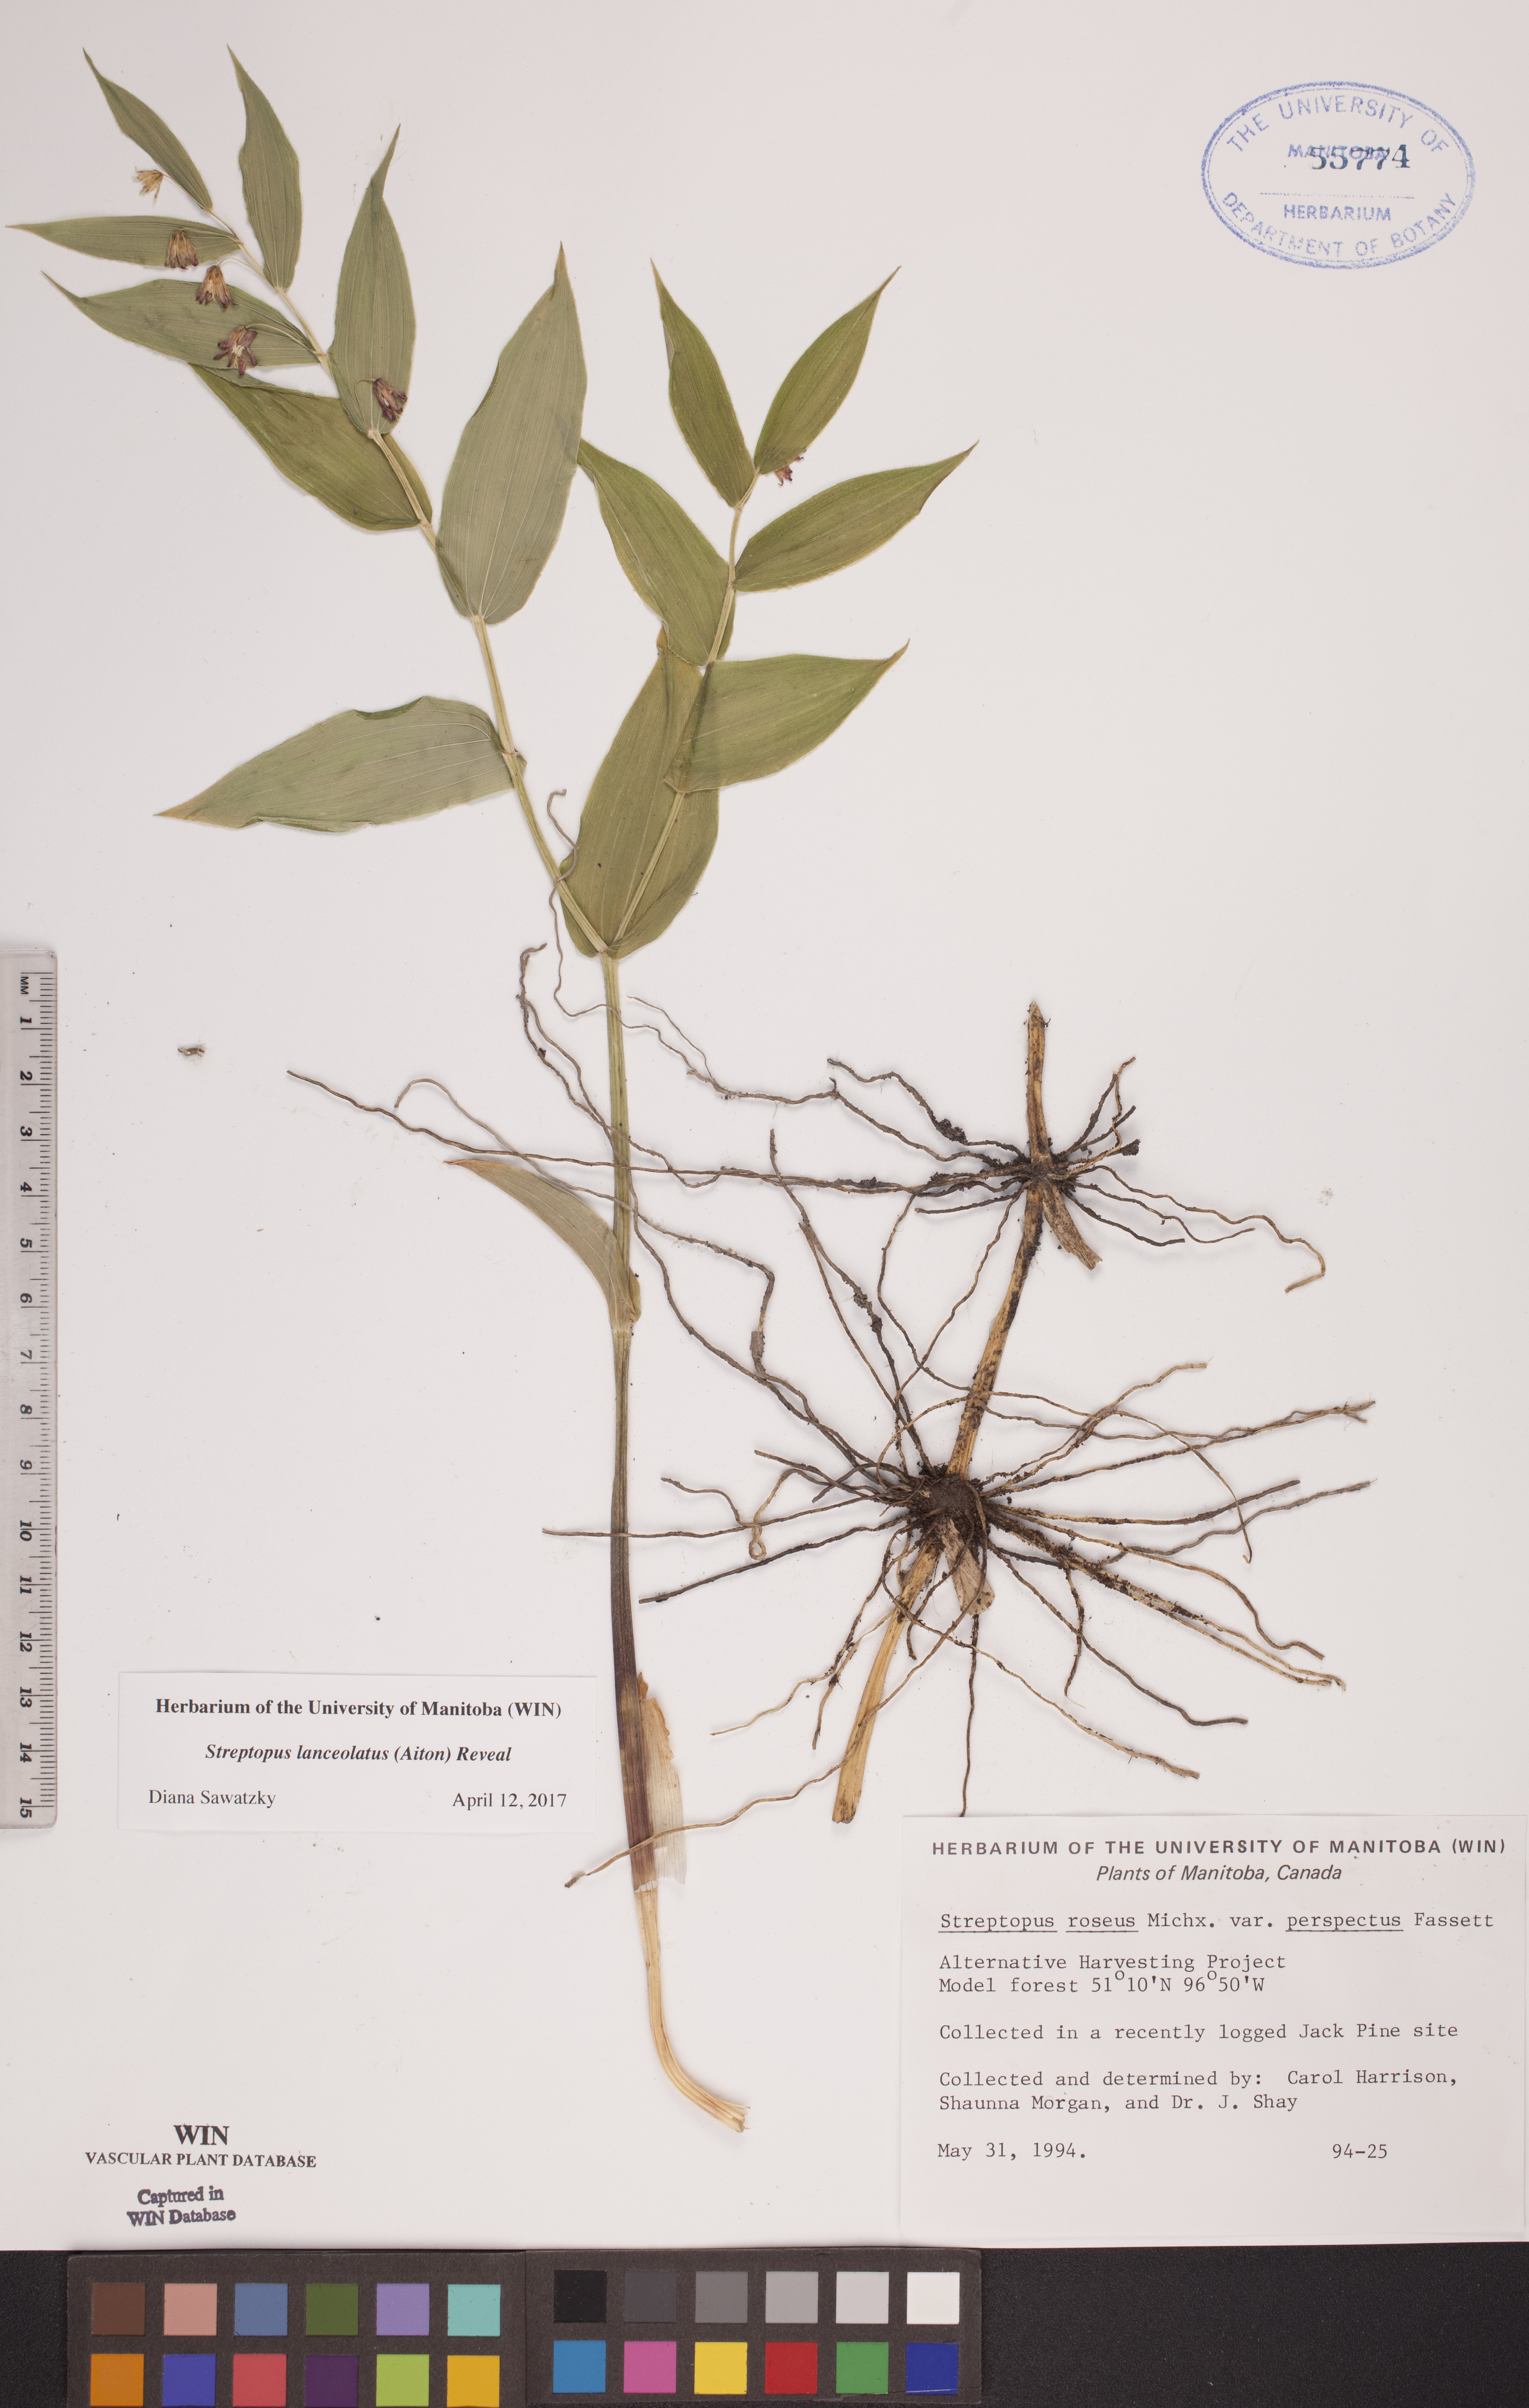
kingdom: Plantae
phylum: Tracheophyta
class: Liliopsida
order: Liliales
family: Liliaceae
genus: Streptopus
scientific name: Streptopus lanceolatus
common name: Rose mandarin
